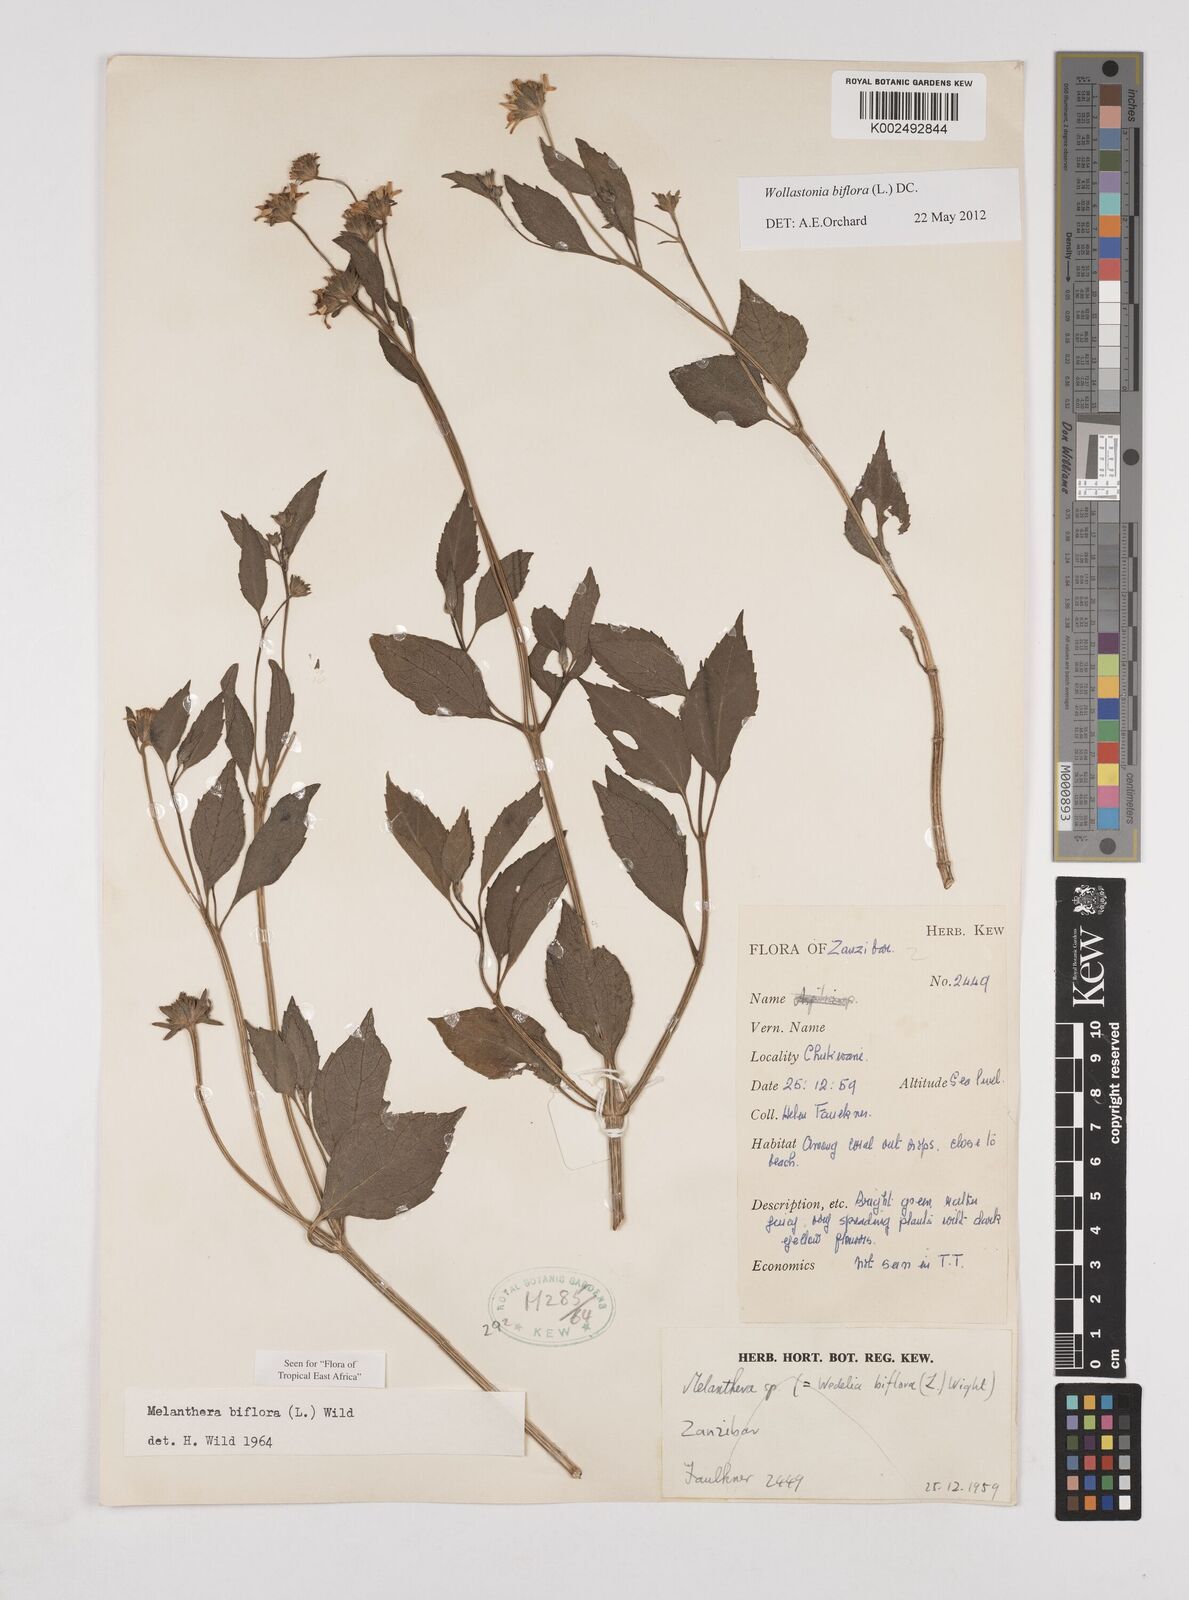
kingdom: Plantae
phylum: Tracheophyta
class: Magnoliopsida
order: Asterales
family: Asteraceae
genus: Wollastonia
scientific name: Wollastonia biflora
